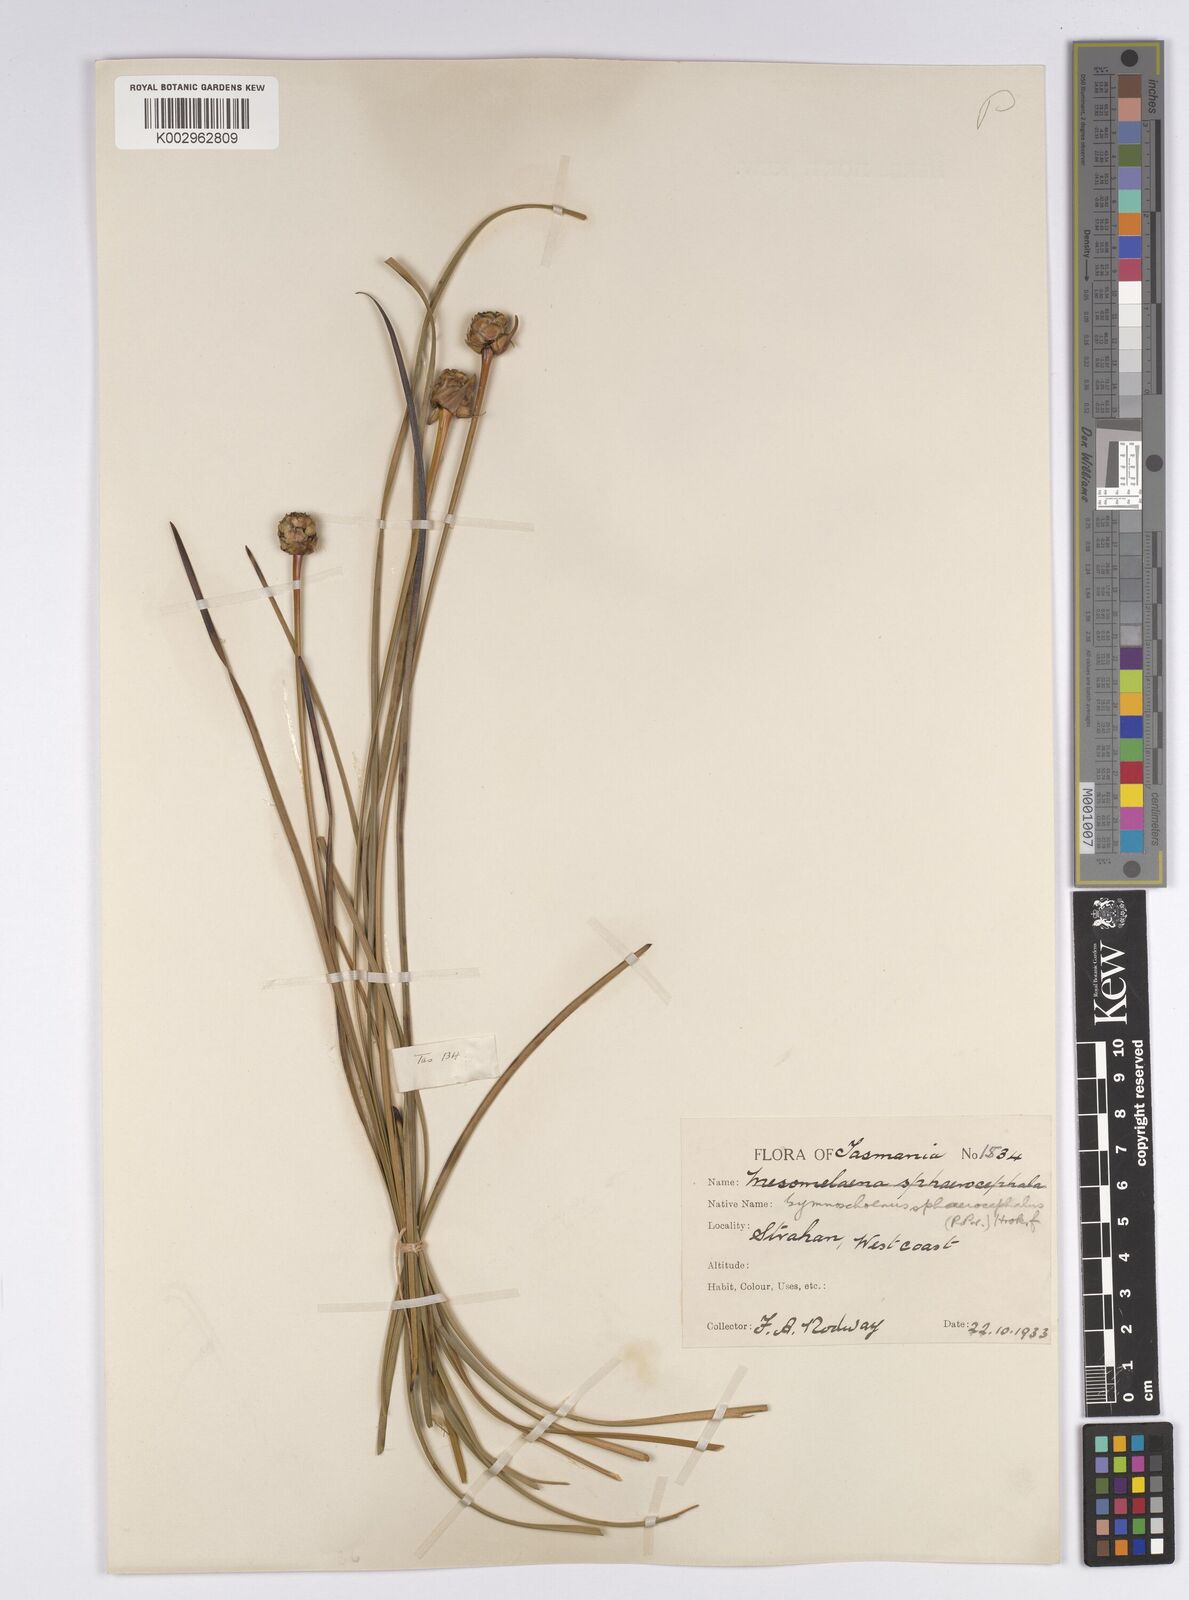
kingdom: Plantae
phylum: Tracheophyta
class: Liliopsida
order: Poales
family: Cyperaceae
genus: Gymnoschoenus
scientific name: Gymnoschoenus sphaerocephalus
